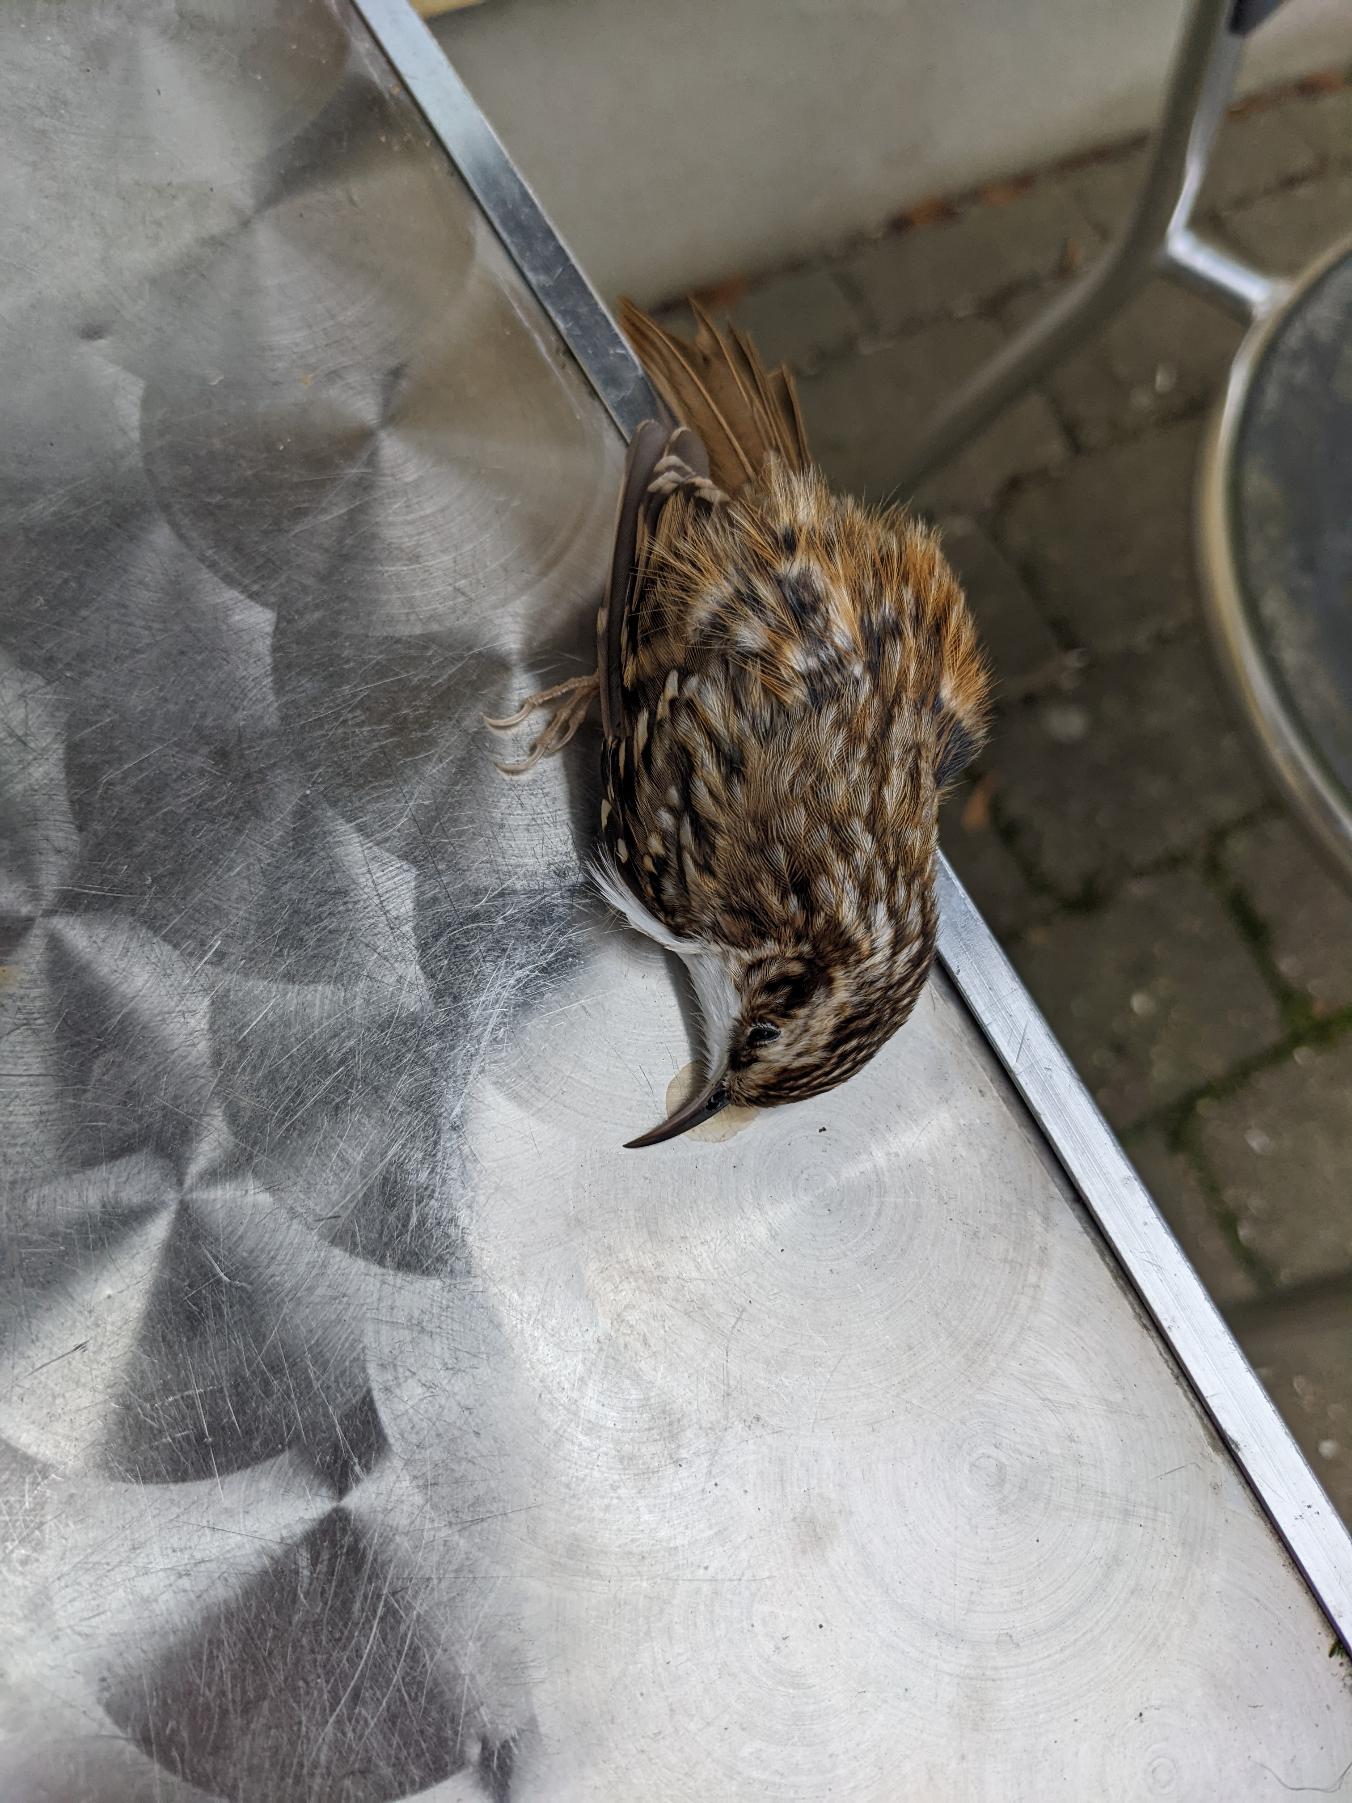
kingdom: Animalia
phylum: Chordata
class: Aves
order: Passeriformes
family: Certhiidae
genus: Certhia
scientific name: Certhia familiaris
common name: Træløber
